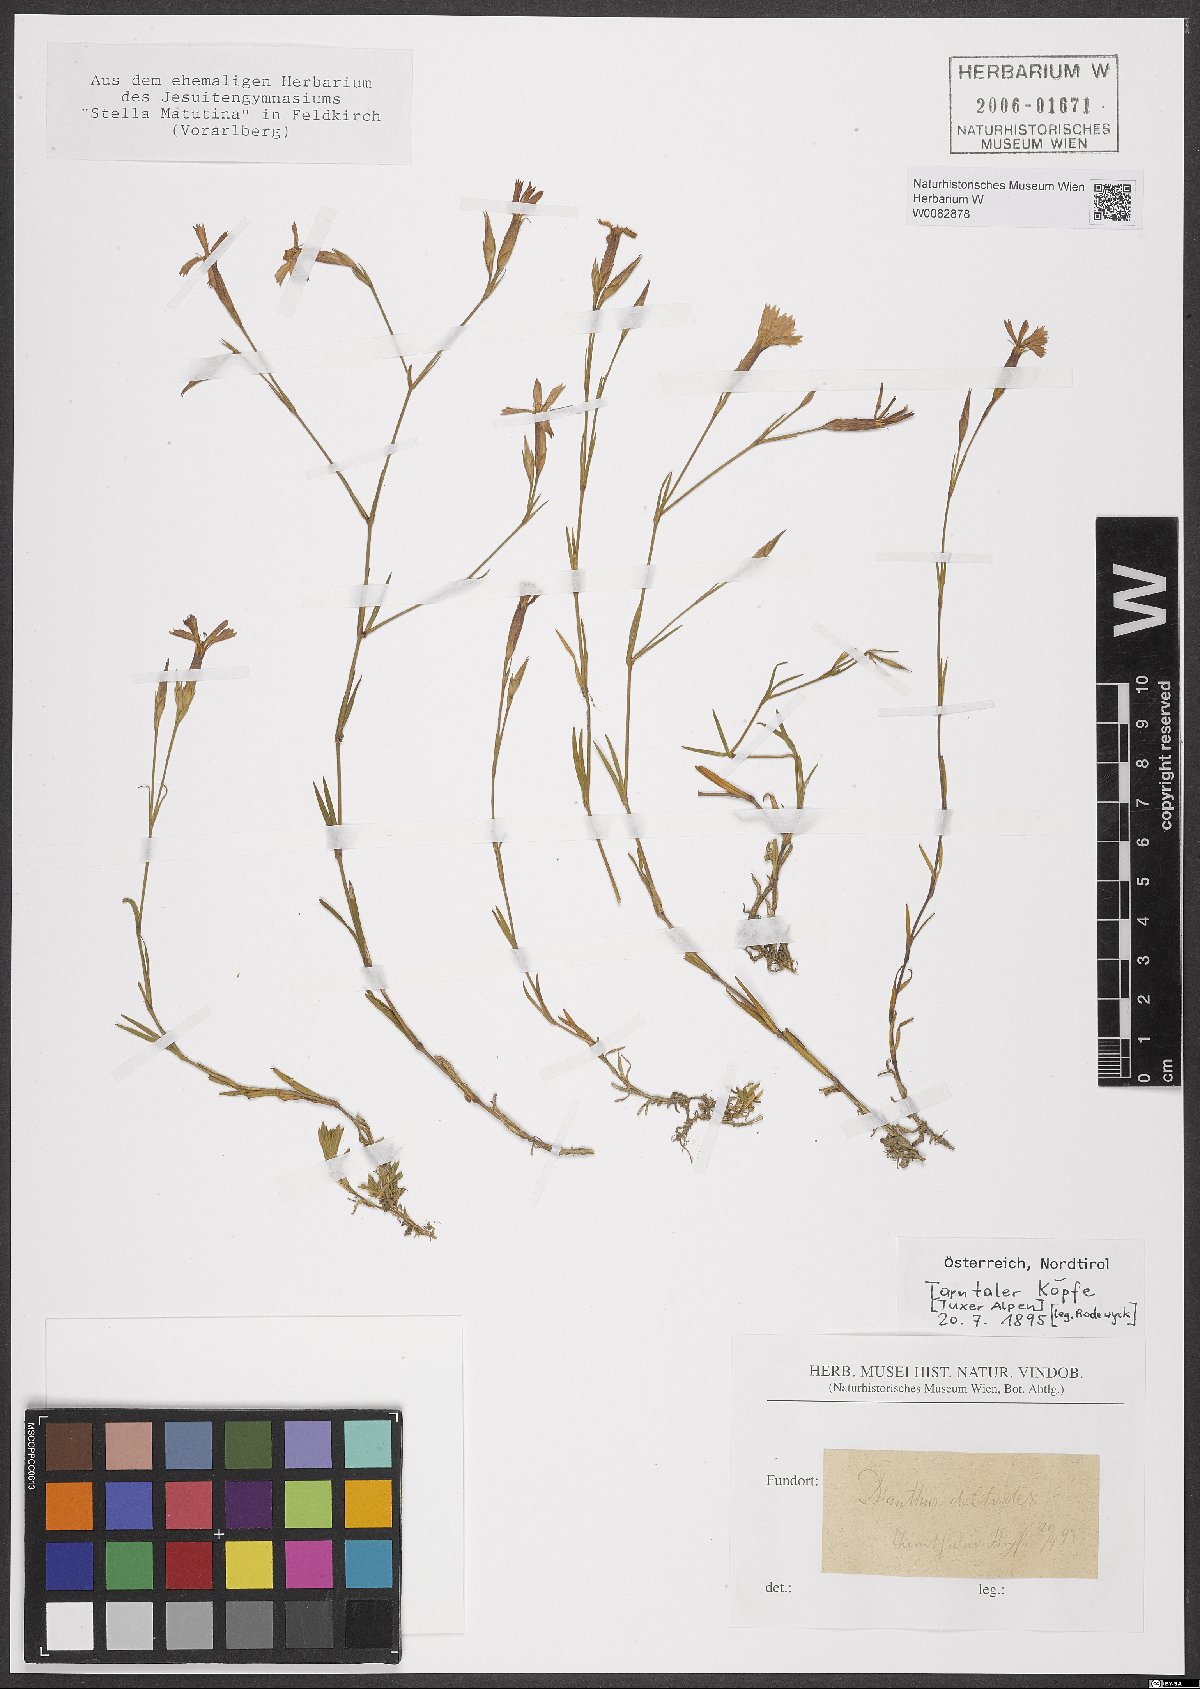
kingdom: Plantae
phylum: Tracheophyta
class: Magnoliopsida
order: Caryophyllales
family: Caryophyllaceae
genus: Dianthus
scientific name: Dianthus deltoides
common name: Maiden pink
